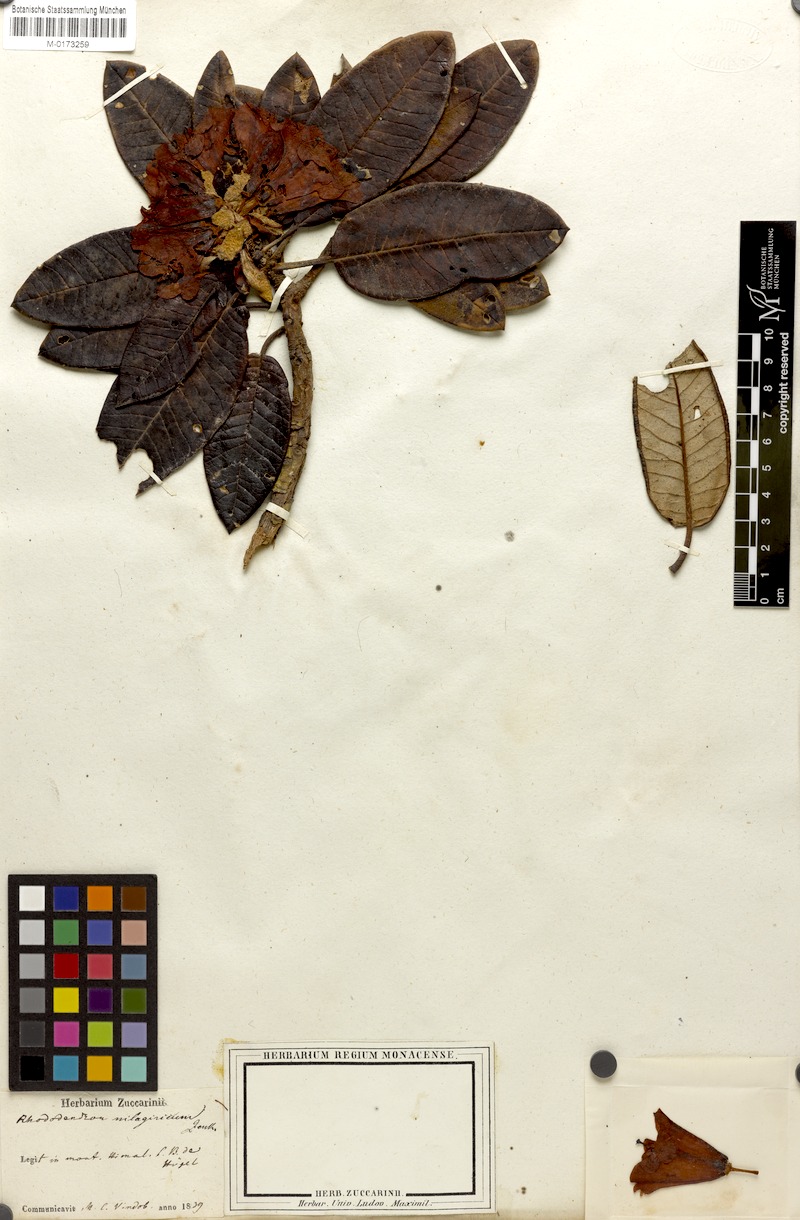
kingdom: Plantae
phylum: Tracheophyta
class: Magnoliopsida
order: Ericales
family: Ericaceae
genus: Rhododendron
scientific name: Rhododendron arboreum
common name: Tree rhododendron
